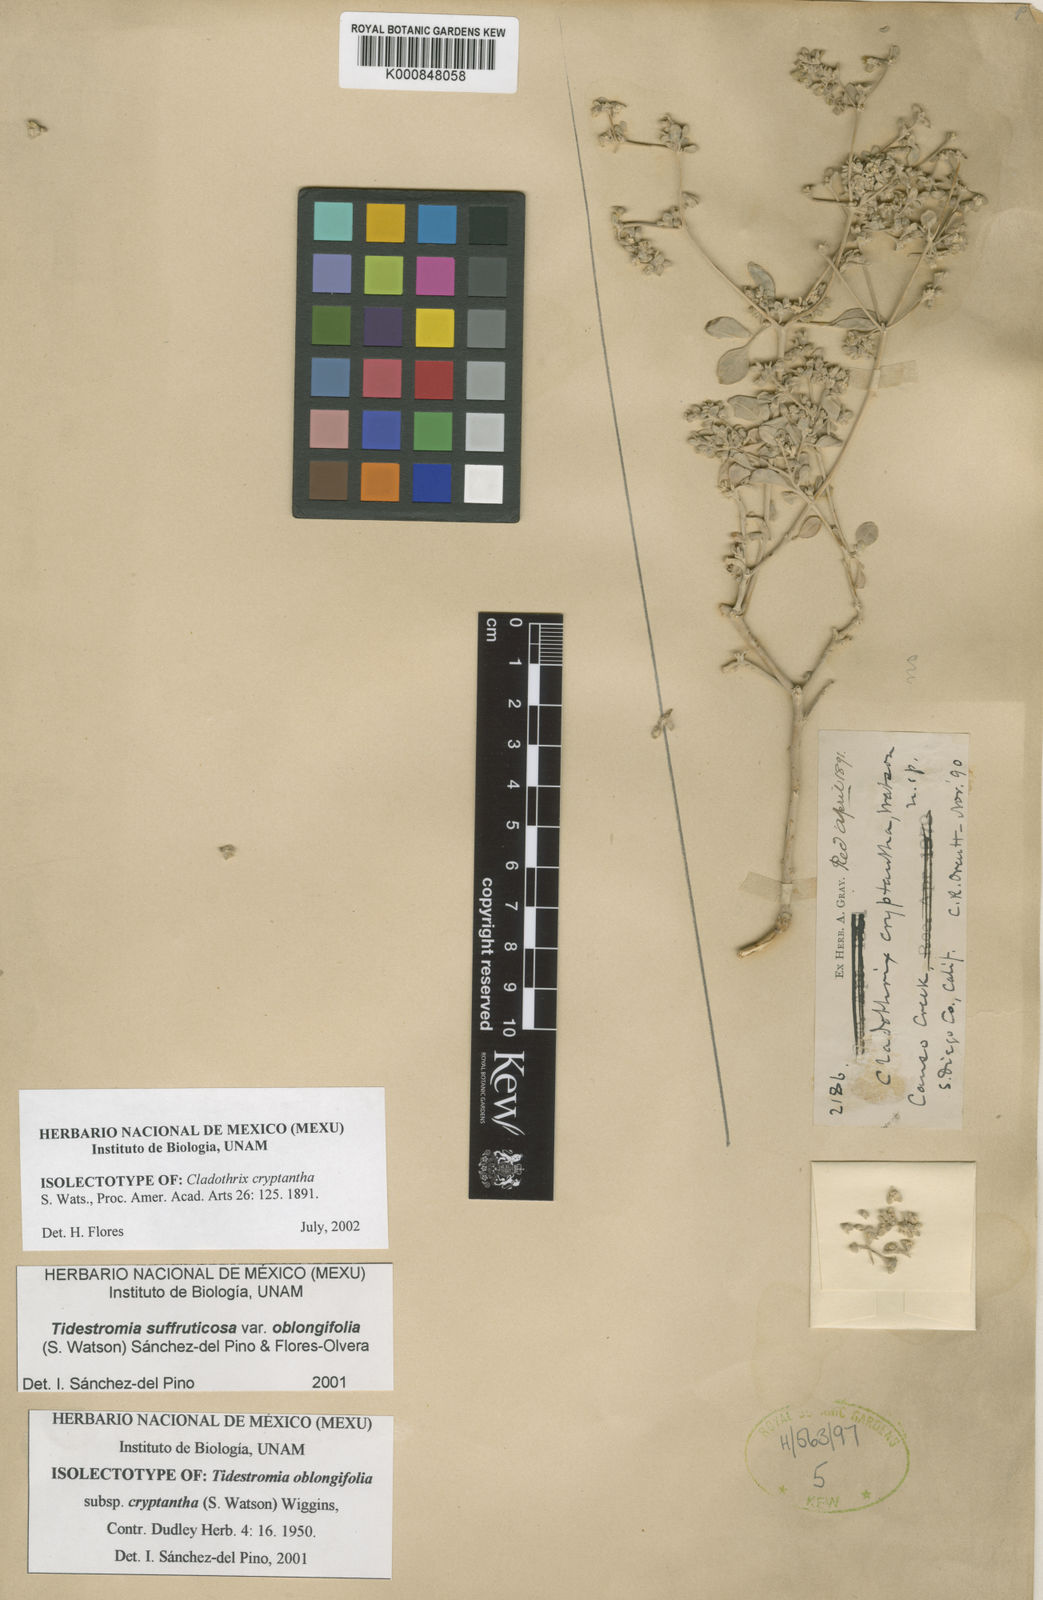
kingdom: Plantae
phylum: Tracheophyta
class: Magnoliopsida
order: Caryophyllales
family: Amaranthaceae
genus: Tidestromia
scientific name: Tidestromia suffruticosa
